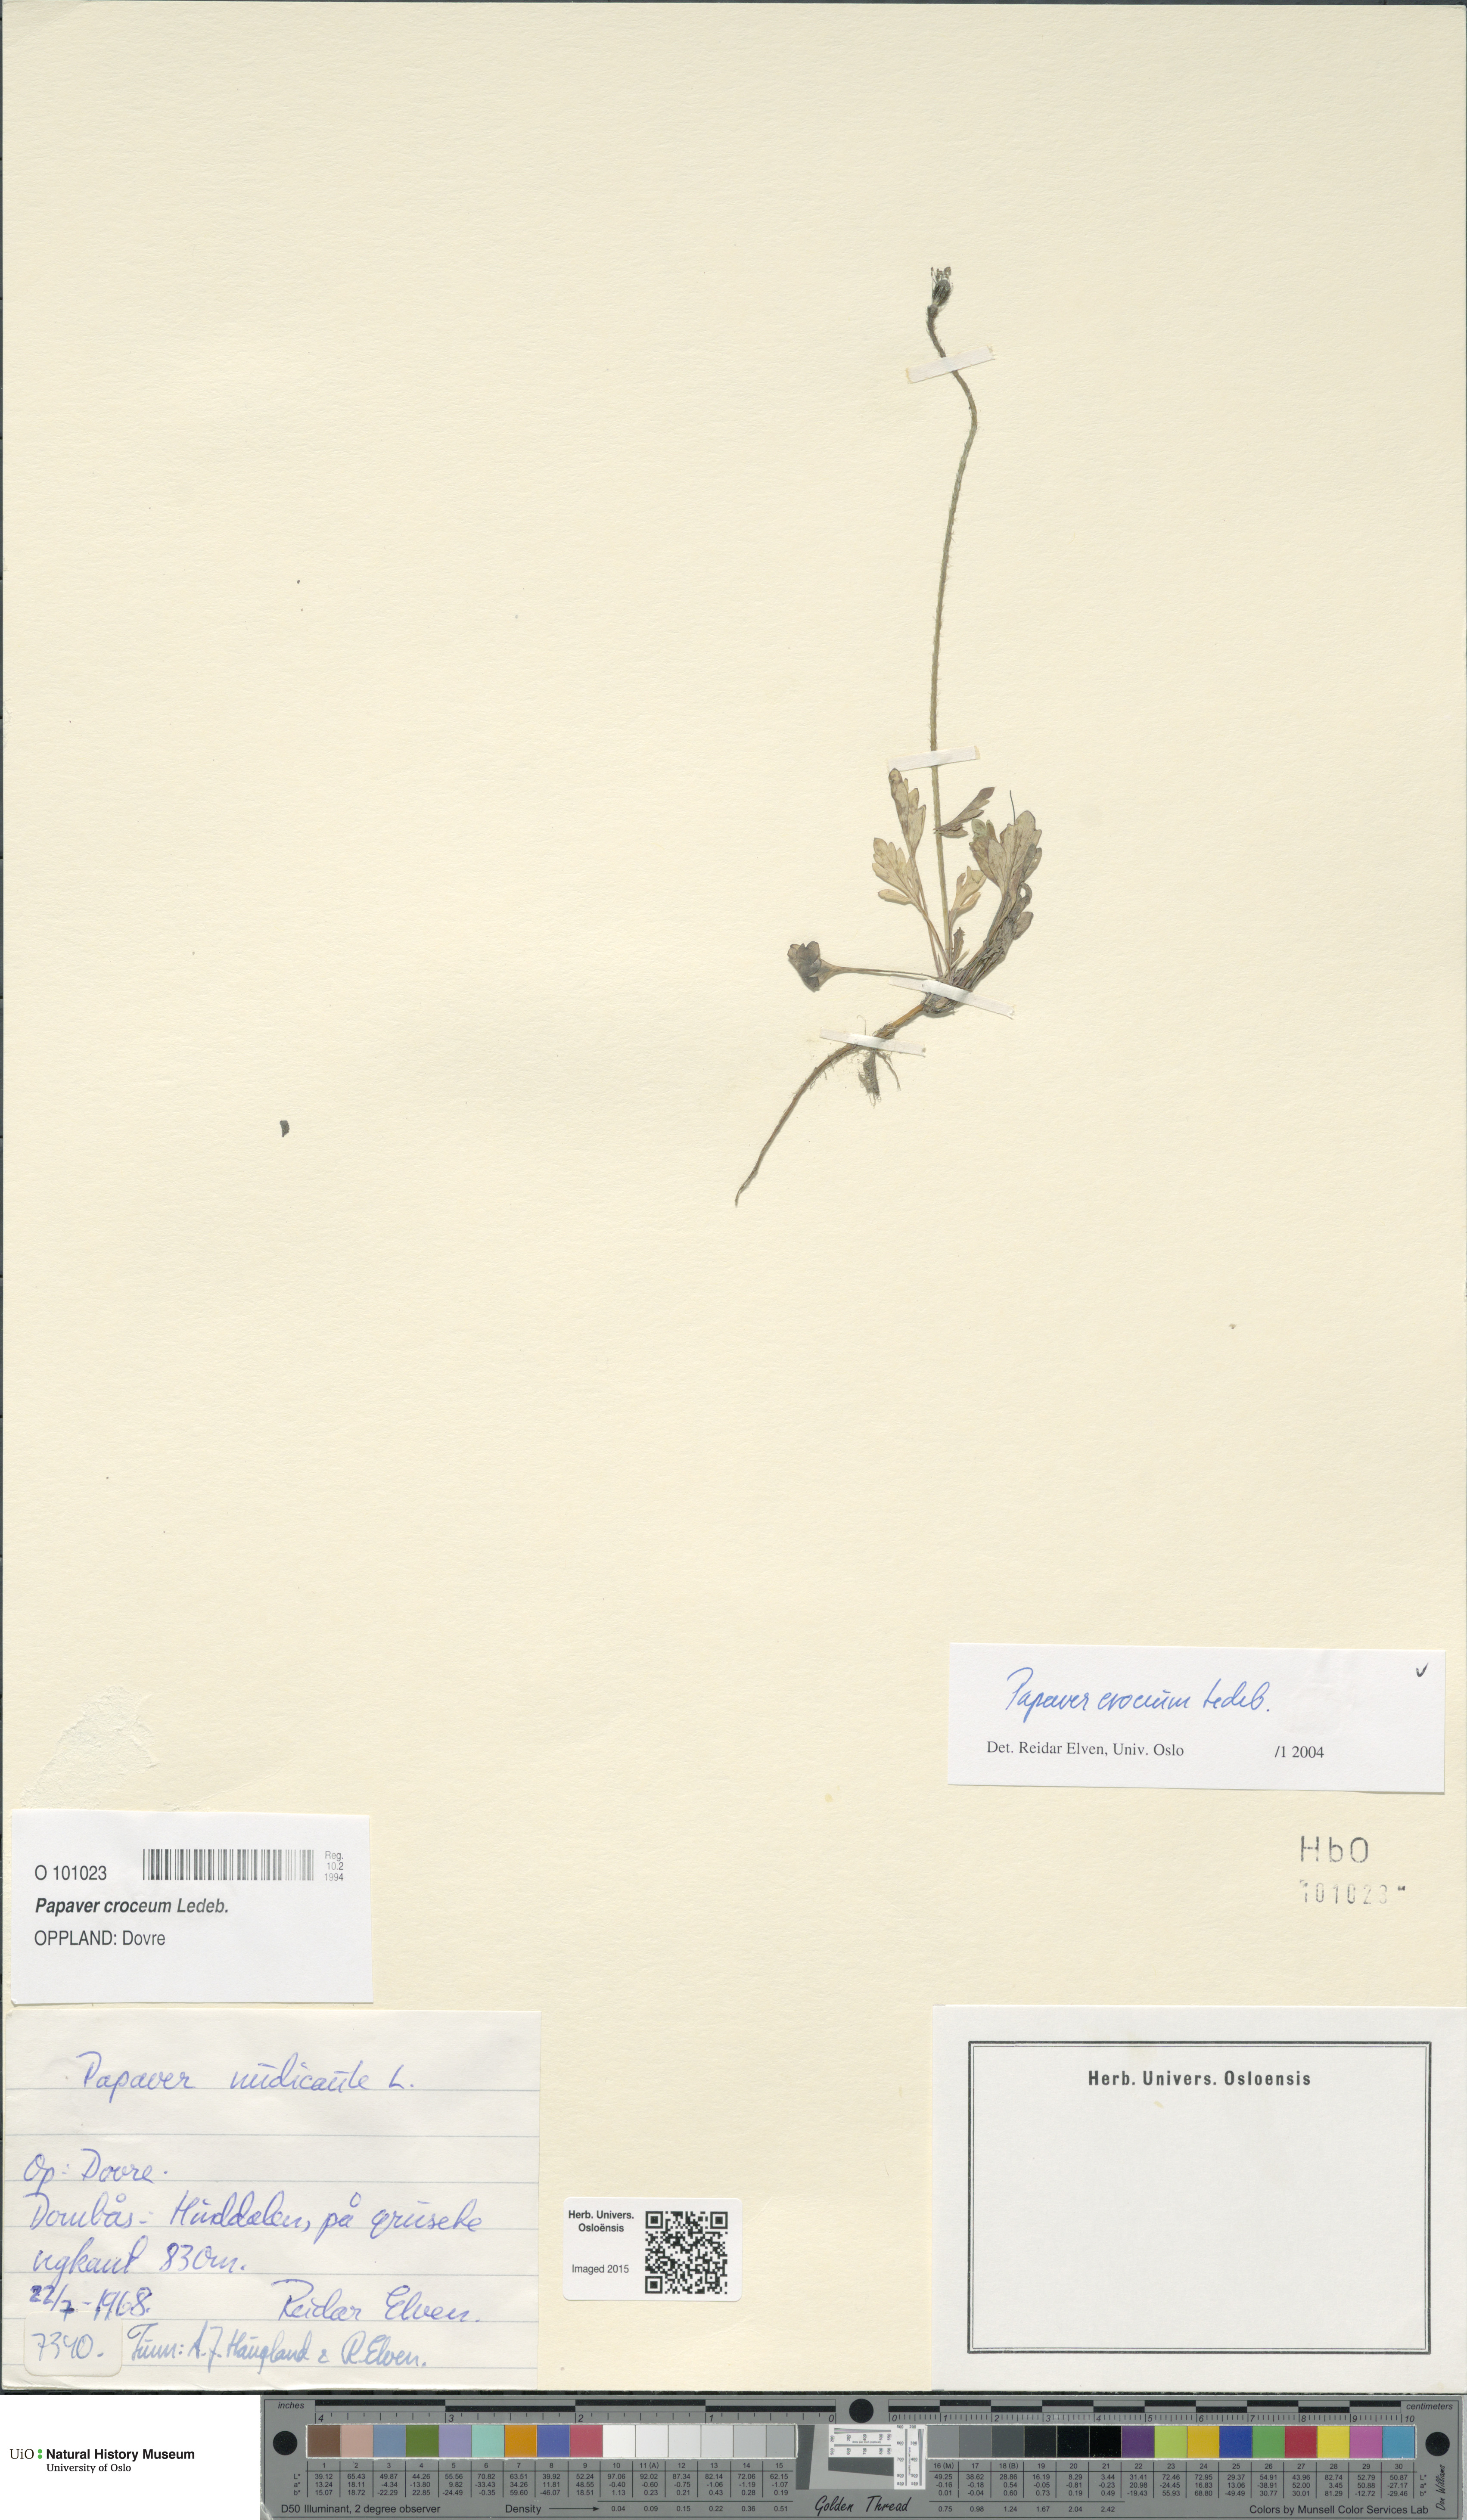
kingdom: Plantae
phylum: Tracheophyta
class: Magnoliopsida
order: Ranunculales
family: Papaveraceae
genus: Papaver
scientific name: Papaver croceum
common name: Siberian poppy
